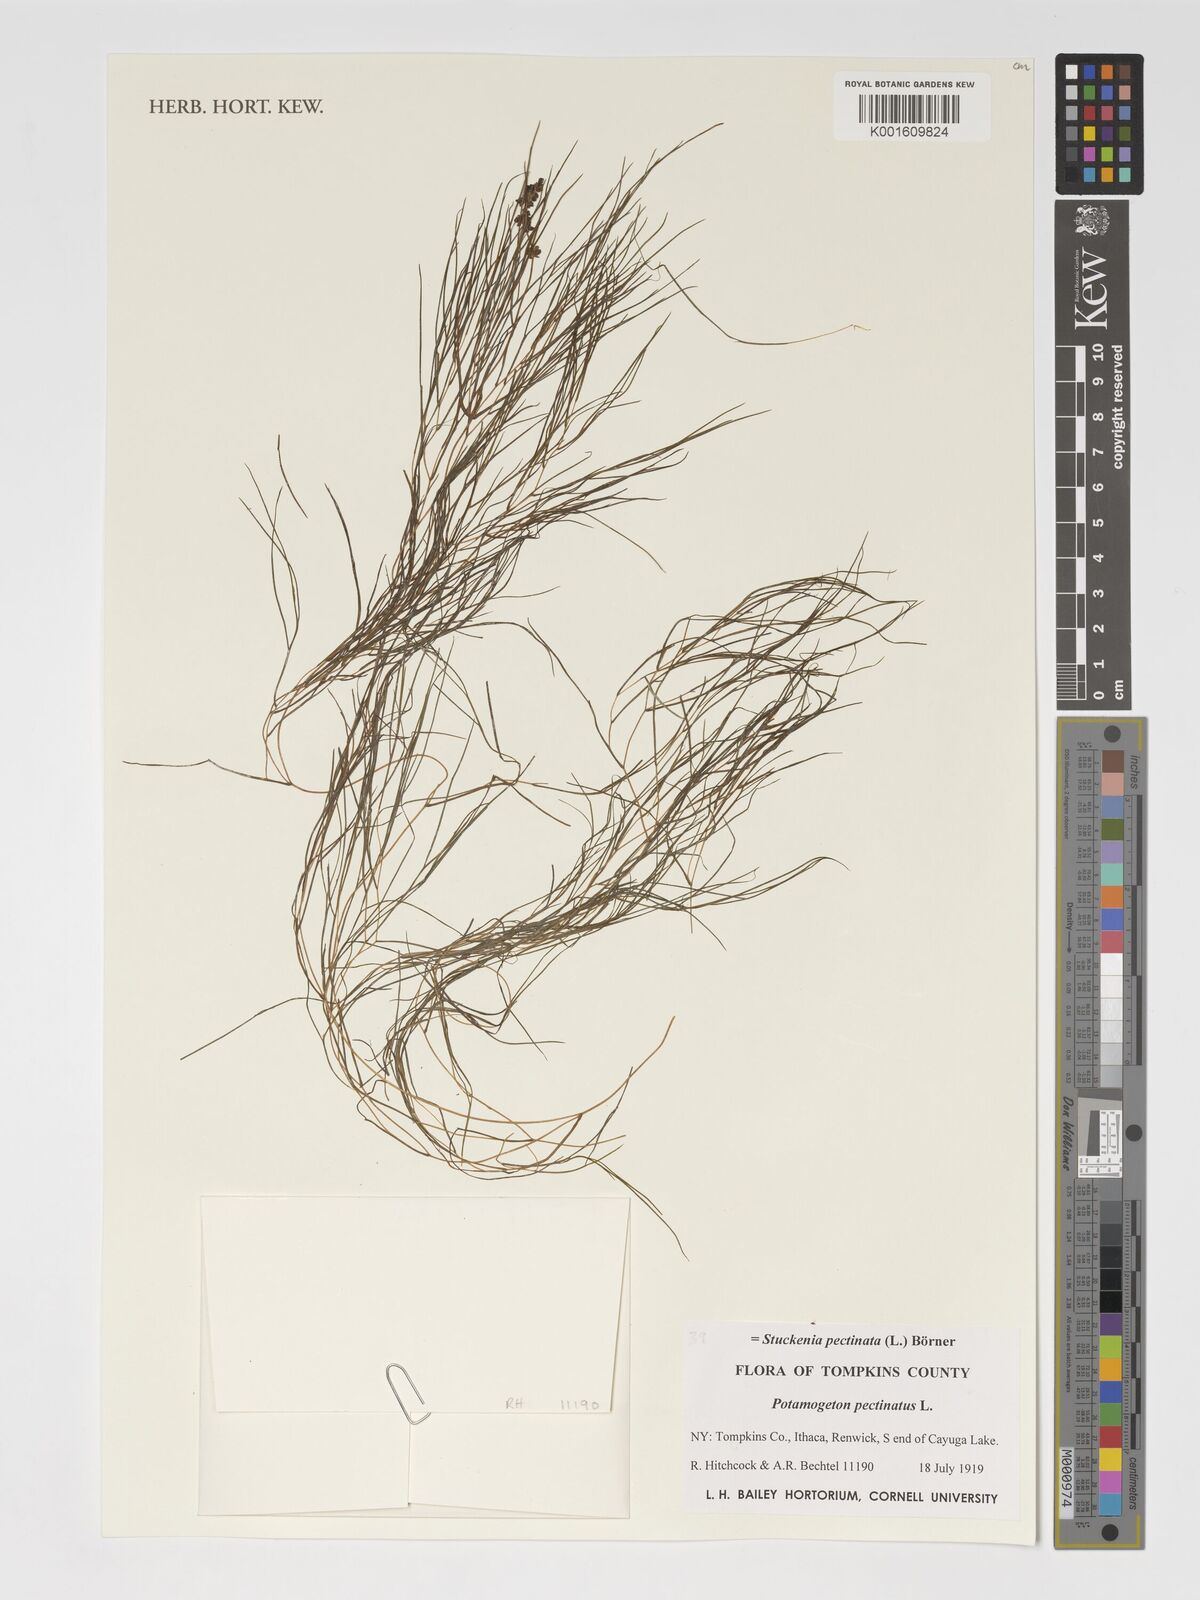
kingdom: Plantae
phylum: Tracheophyta
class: Liliopsida
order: Alismatales
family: Potamogetonaceae
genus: Stuckenia
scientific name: Stuckenia pectinata
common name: Sago pondweed
